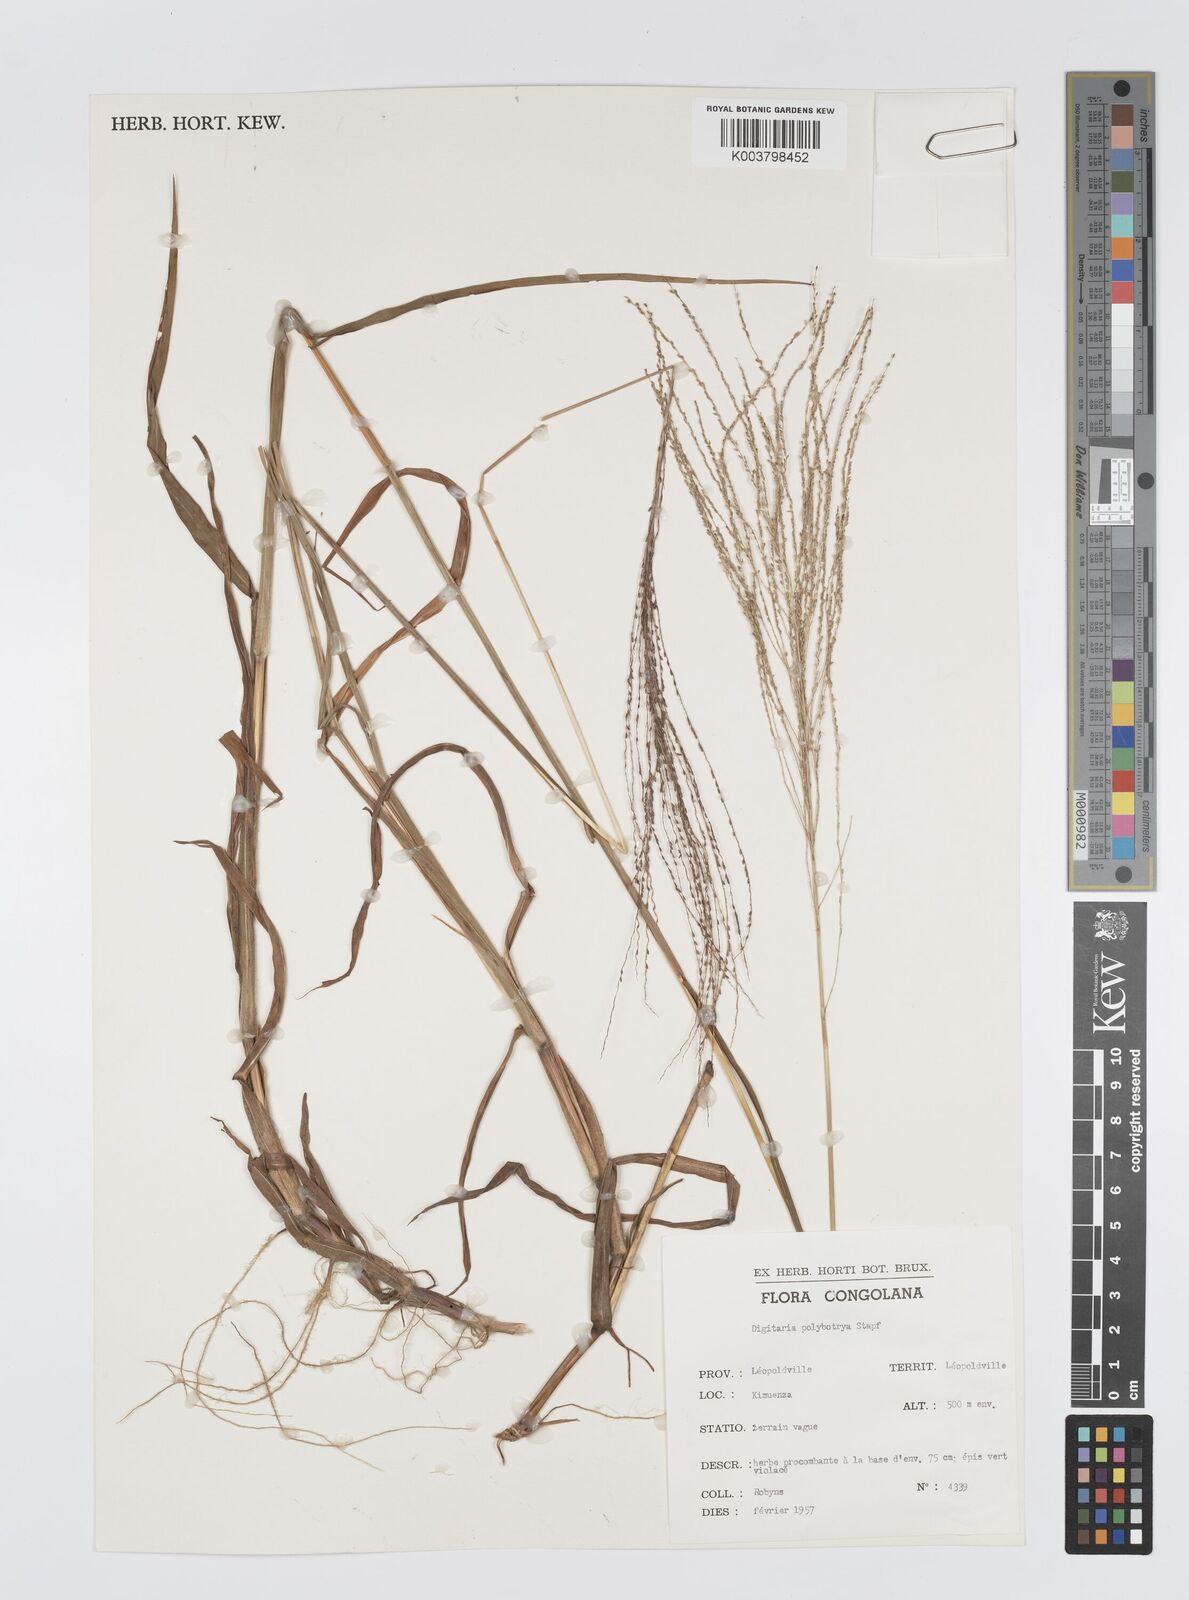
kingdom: Plantae
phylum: Tracheophyta
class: Liliopsida
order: Poales
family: Poaceae
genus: Digitaria
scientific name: Digitaria leptorhachis
